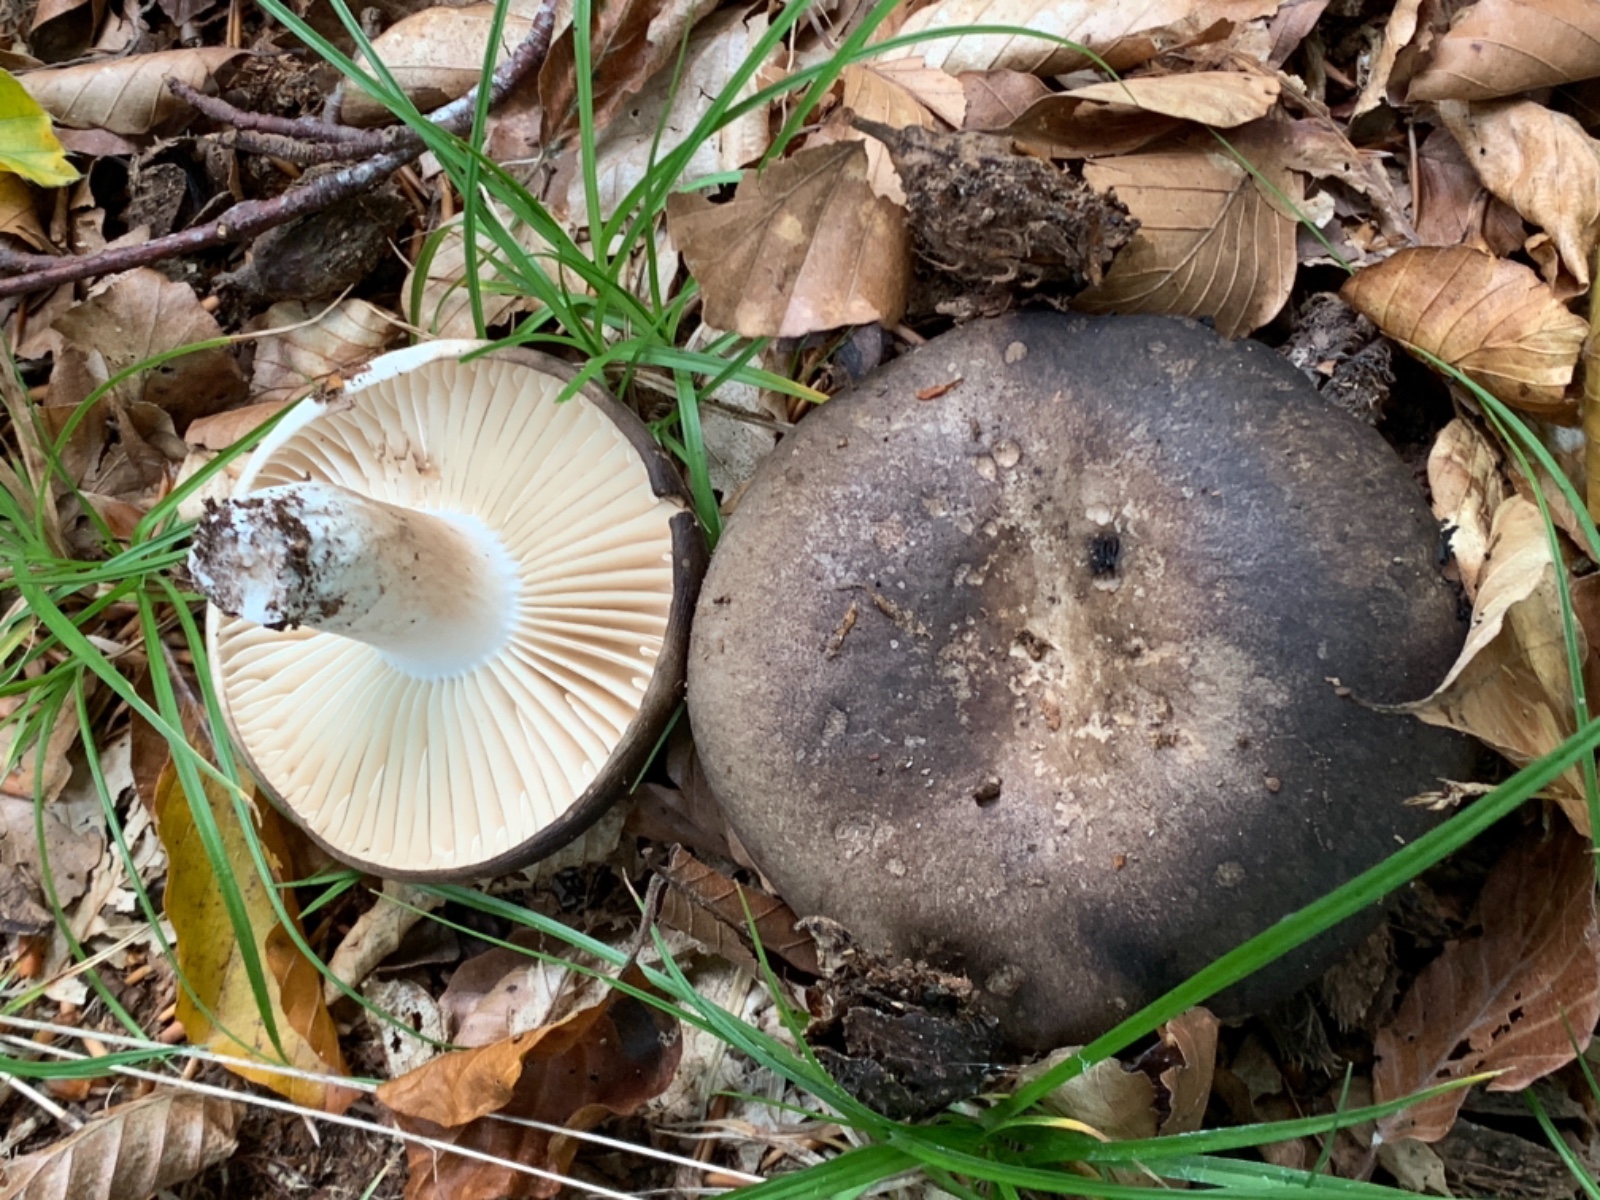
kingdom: Fungi
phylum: Basidiomycota
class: Agaricomycetes
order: Russulales
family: Russulaceae
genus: Russula
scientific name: Russula adusta
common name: sværtende skørhat
